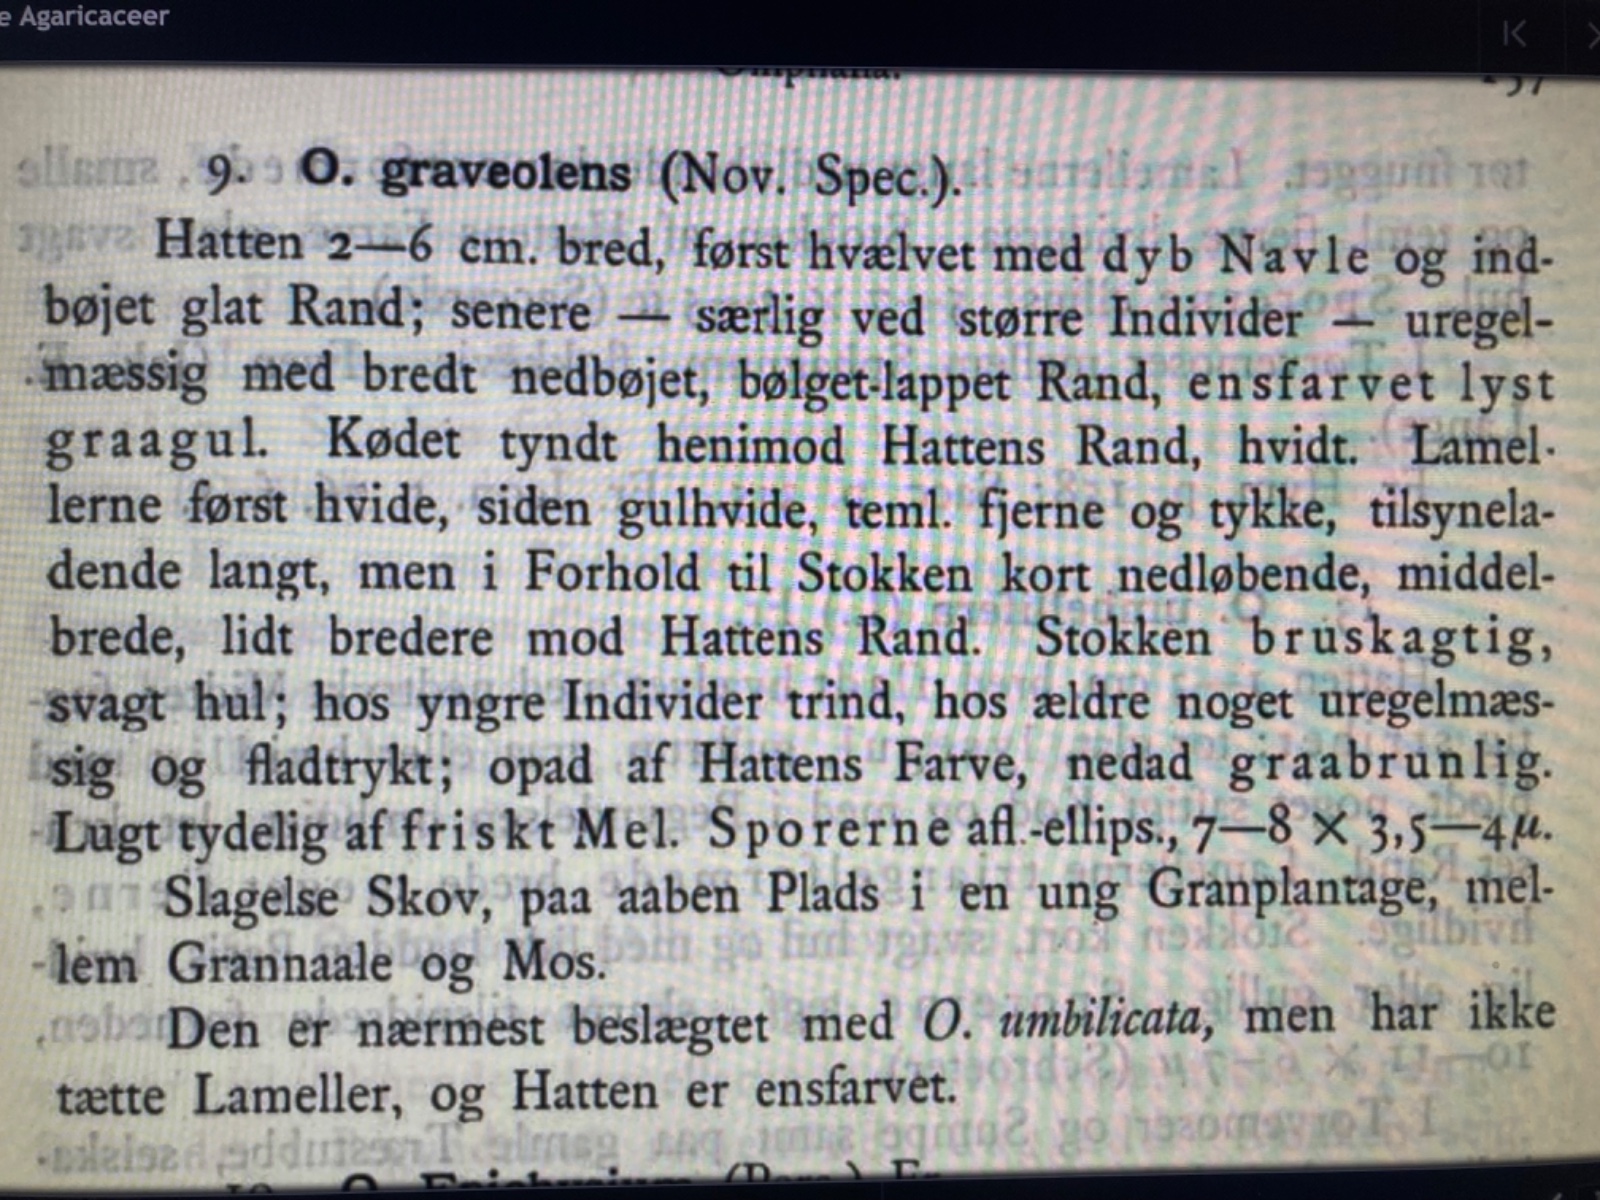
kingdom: Fungi
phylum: Basidiomycota
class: Agaricomycetes
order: Agaricales
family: Tricholomataceae
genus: Pseudoomphalina
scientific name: Pseudoomphalina kalchbrenneri
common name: lædergul navletragthat
